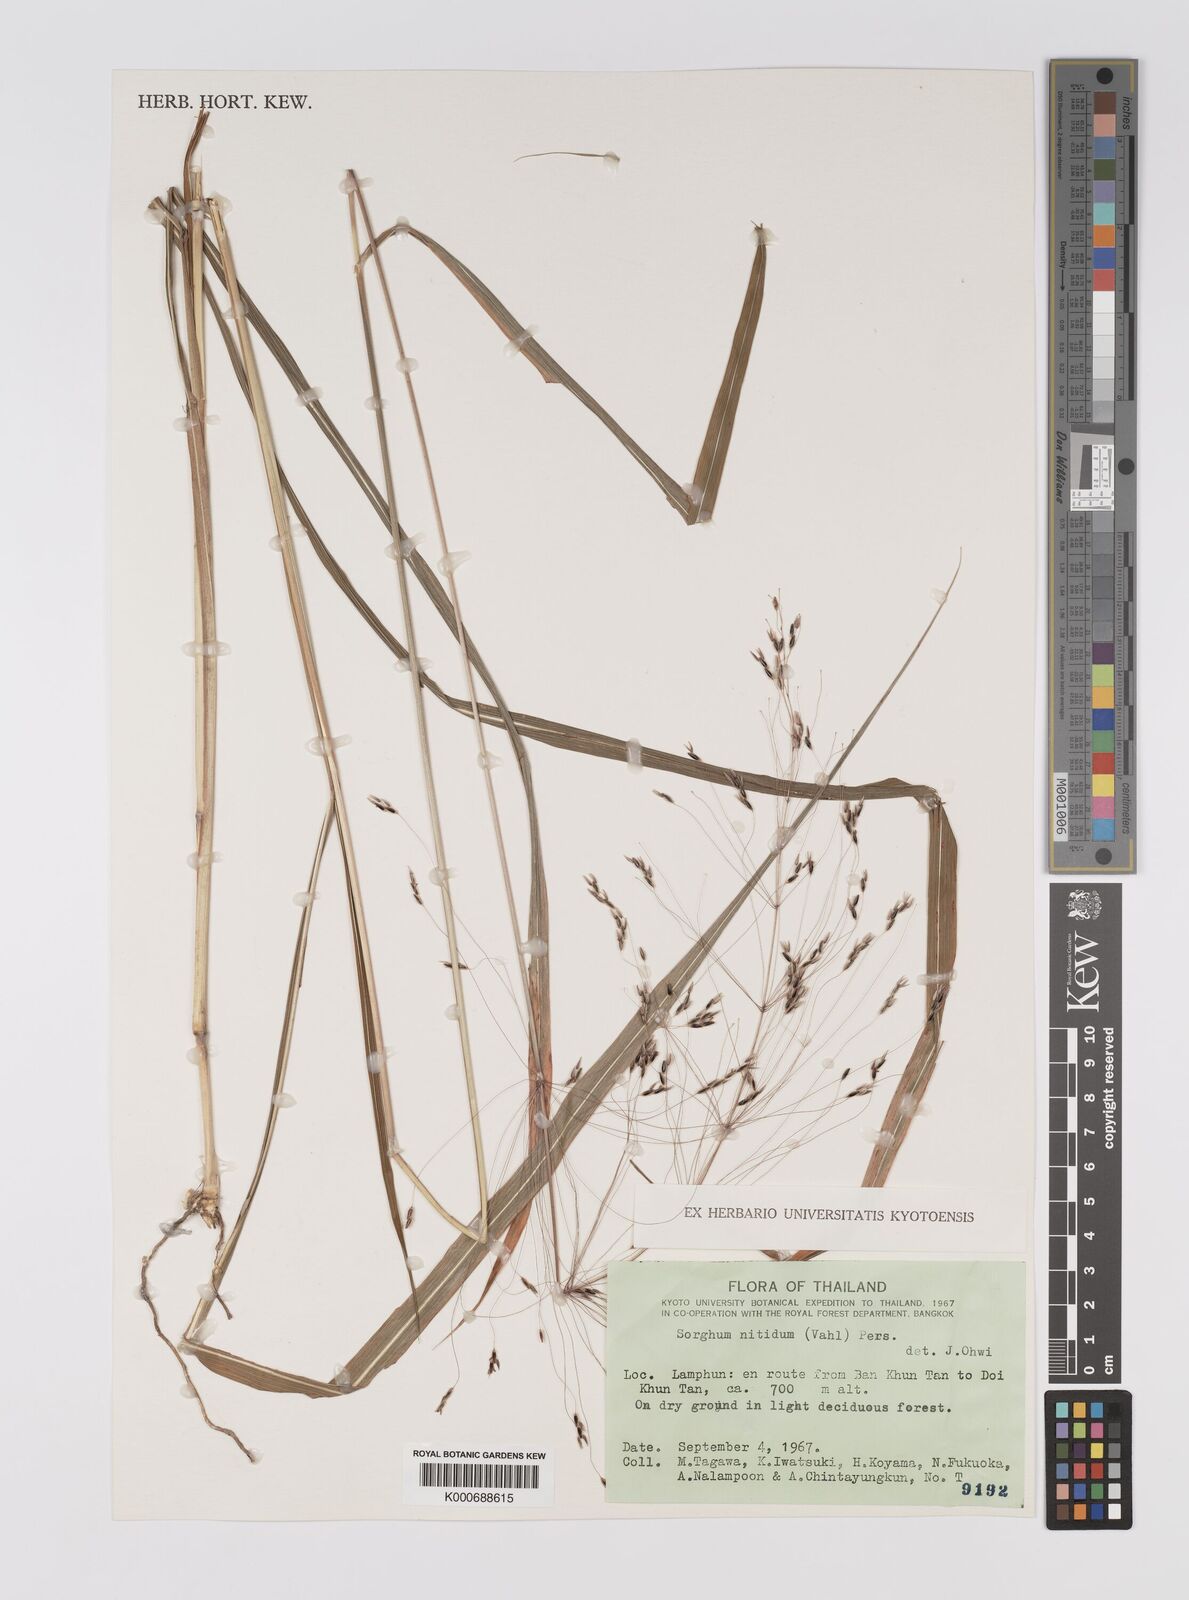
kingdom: Plantae
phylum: Tracheophyta
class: Liliopsida
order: Poales
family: Poaceae
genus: Sorghum
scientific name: Sorghum nitidum
